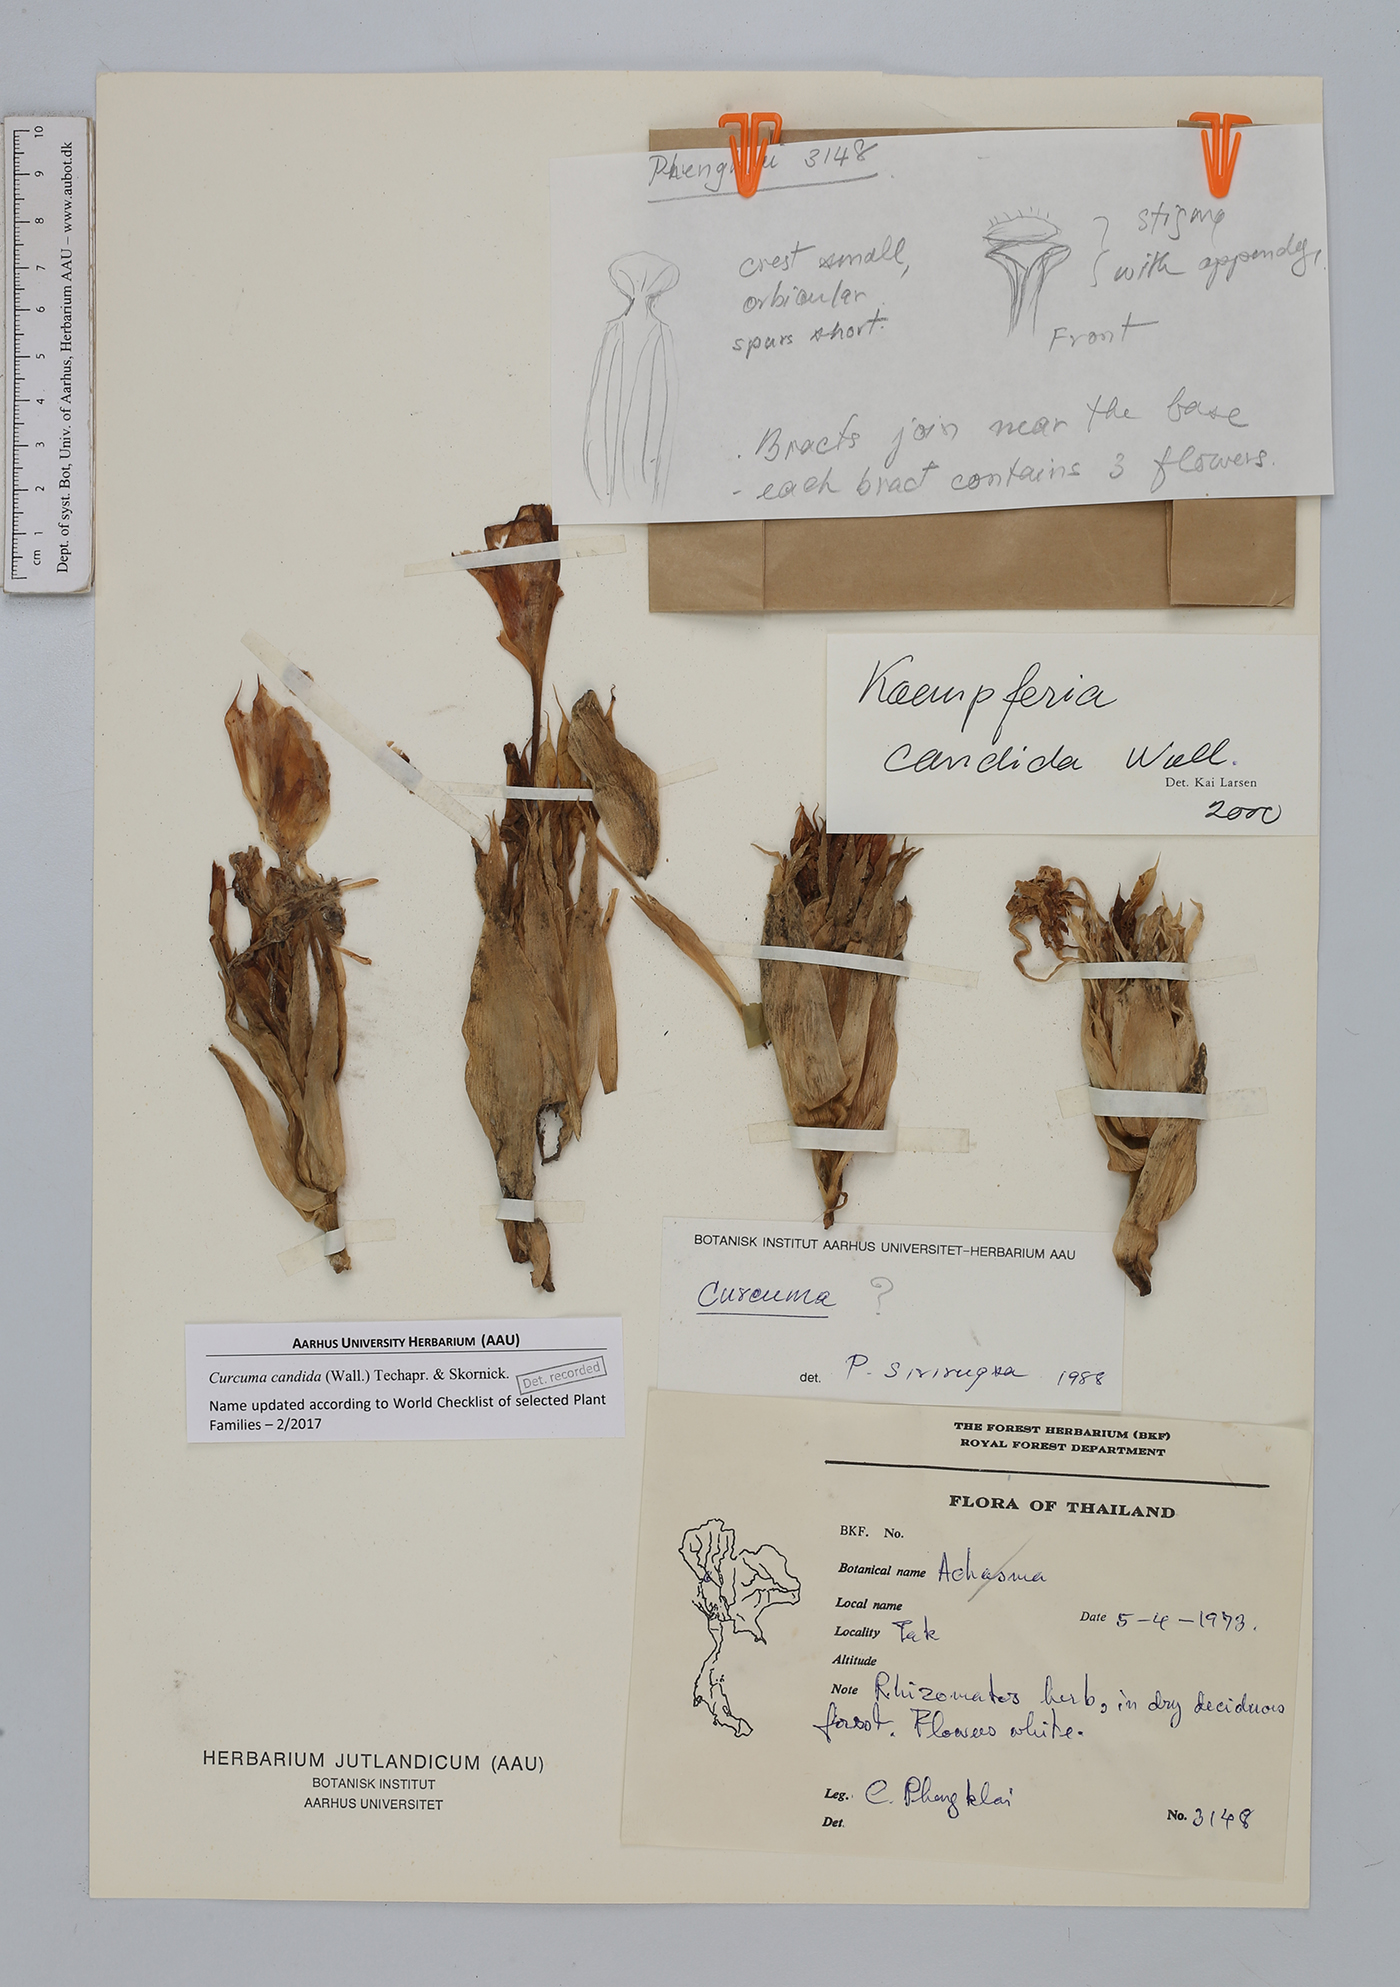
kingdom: Plantae
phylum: Tracheophyta
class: Liliopsida
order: Zingiberales
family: Zingiberaceae
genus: Curcuma
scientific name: Curcuma candida
